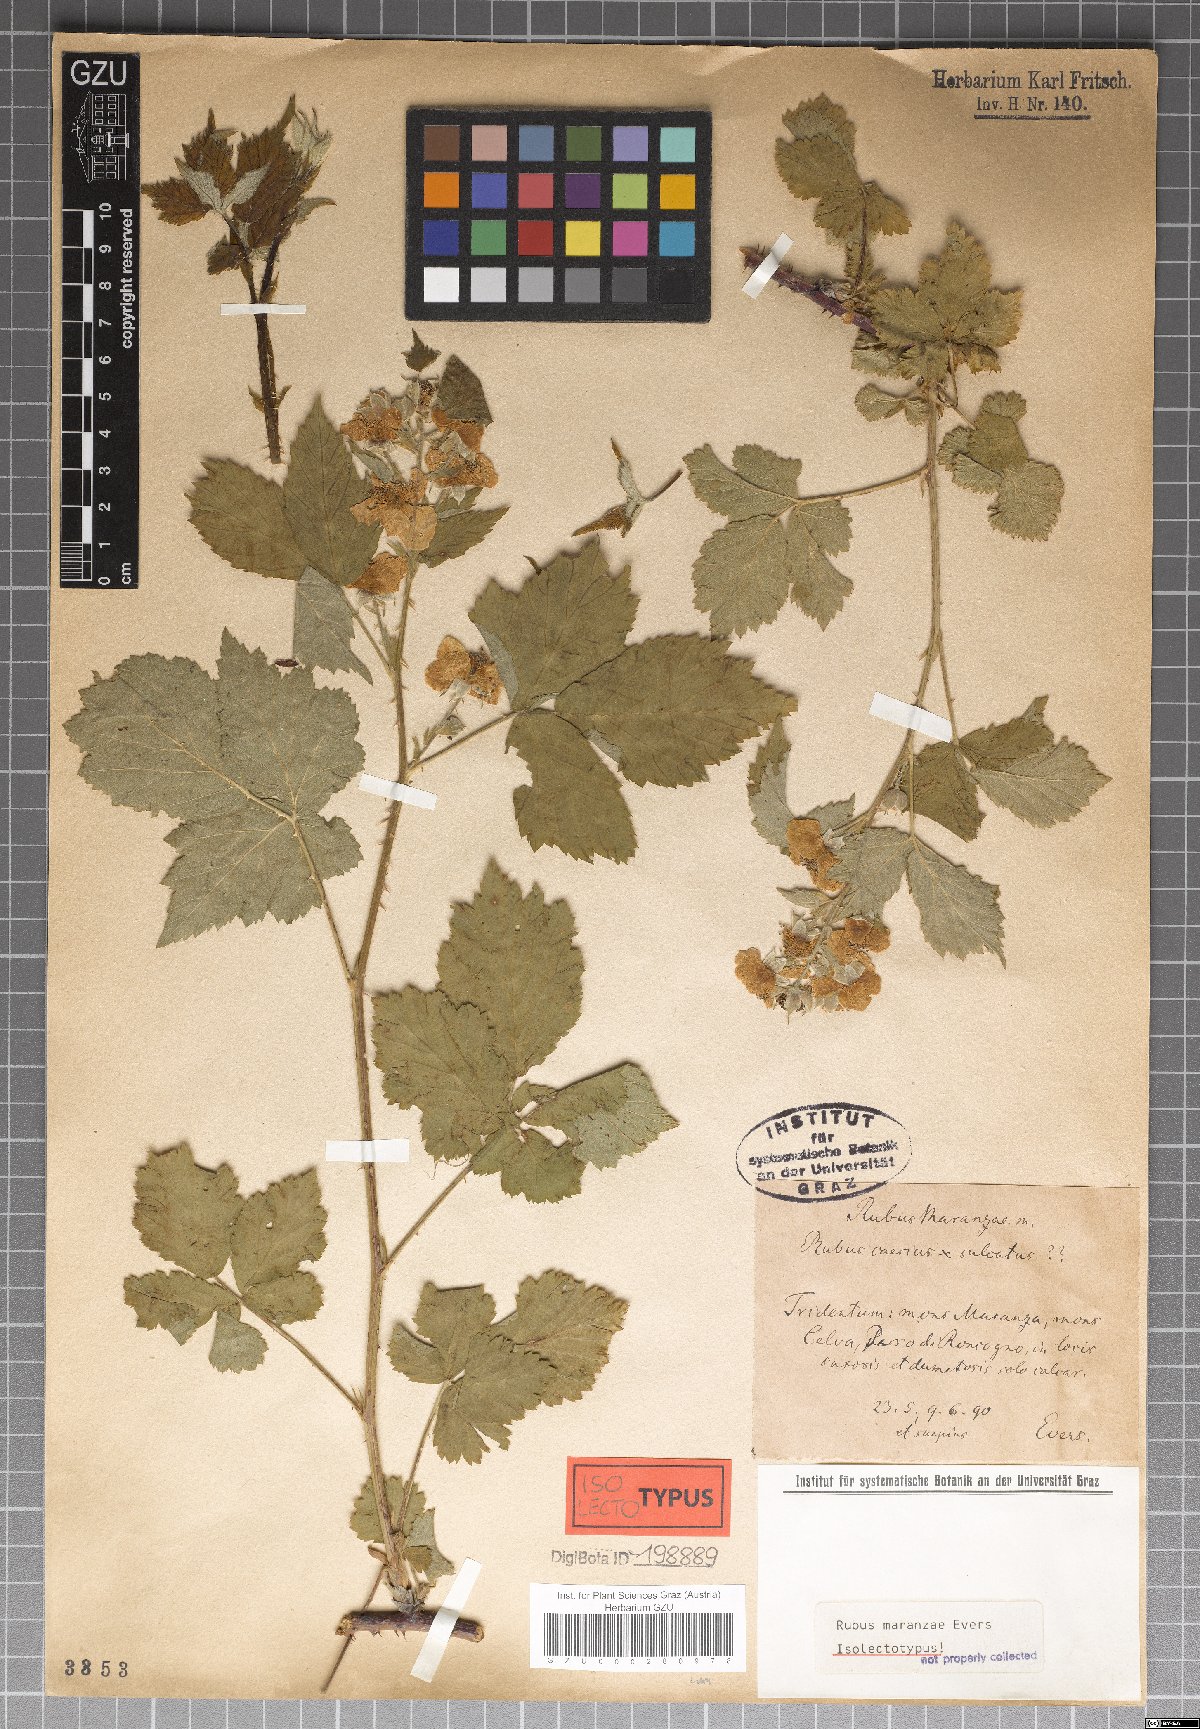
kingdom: Plantae
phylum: Tracheophyta
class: Magnoliopsida
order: Rosales
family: Rosaceae
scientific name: Rosaceae
